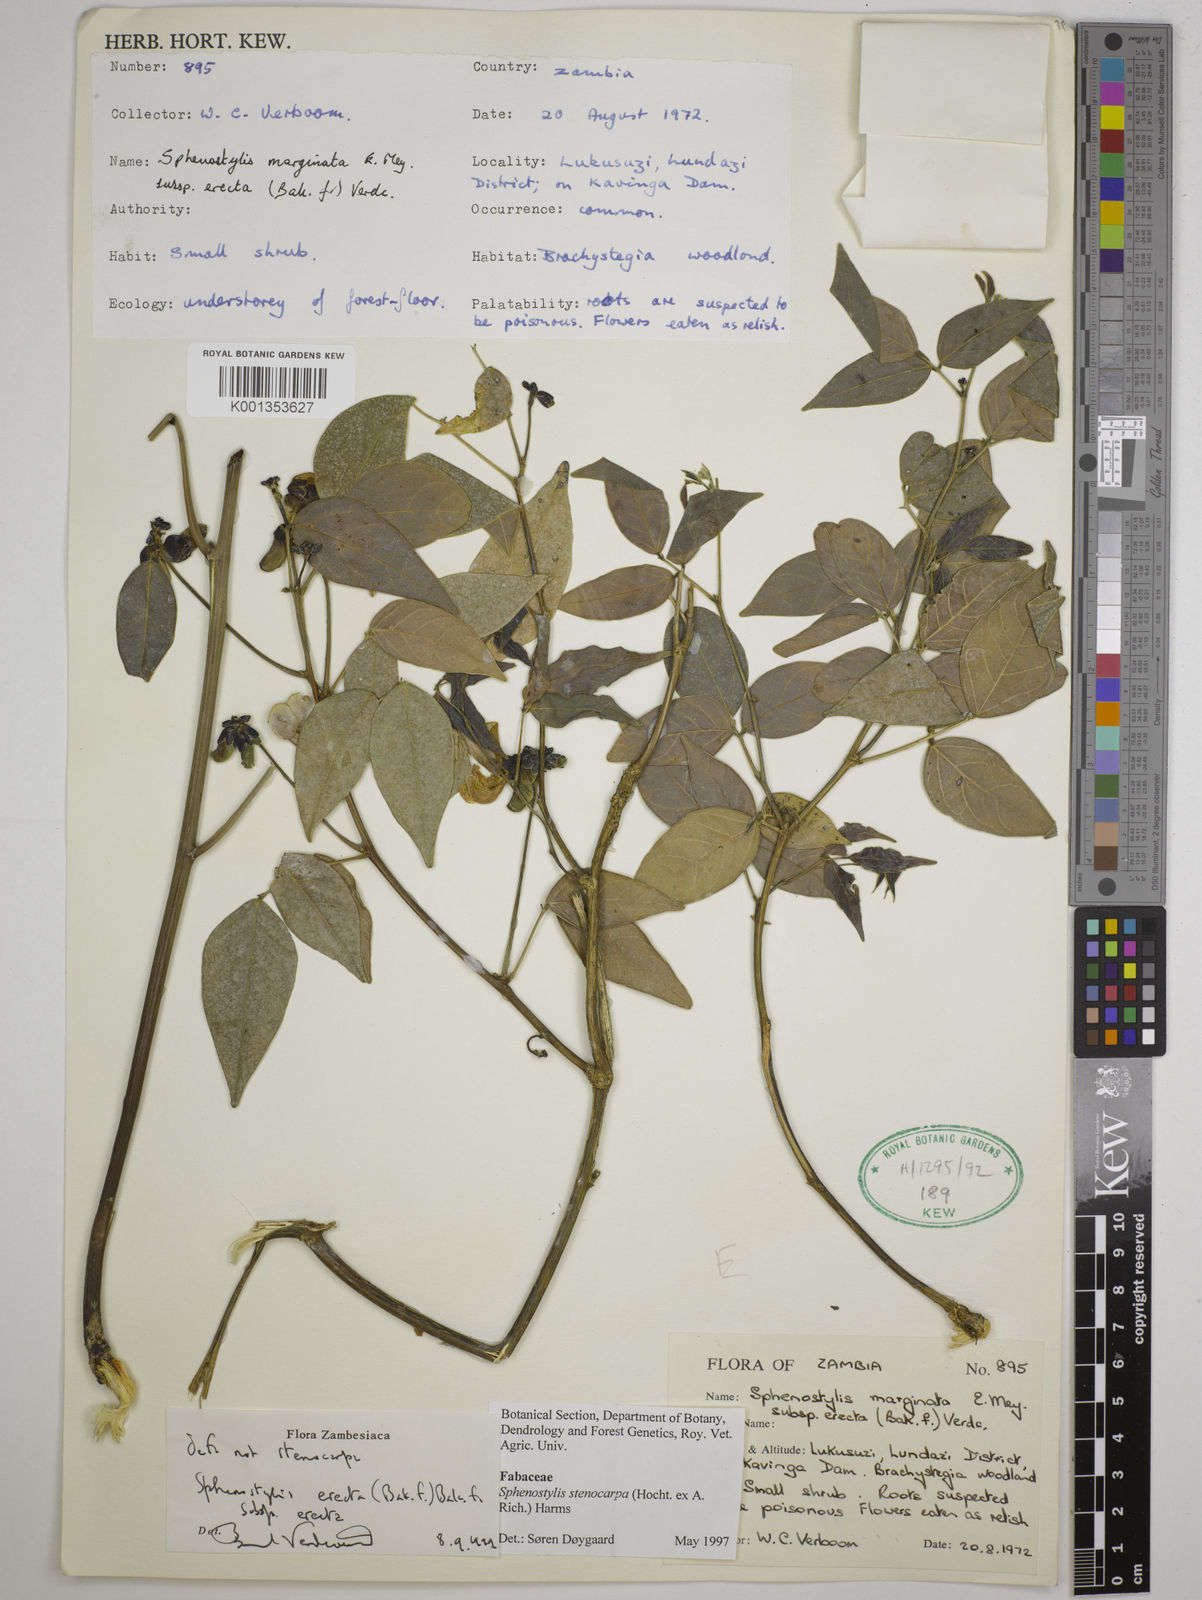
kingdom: Plantae
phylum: Tracheophyta
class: Magnoliopsida
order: Fabales
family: Fabaceae
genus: Sphenostylis
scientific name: Sphenostylis erecta
